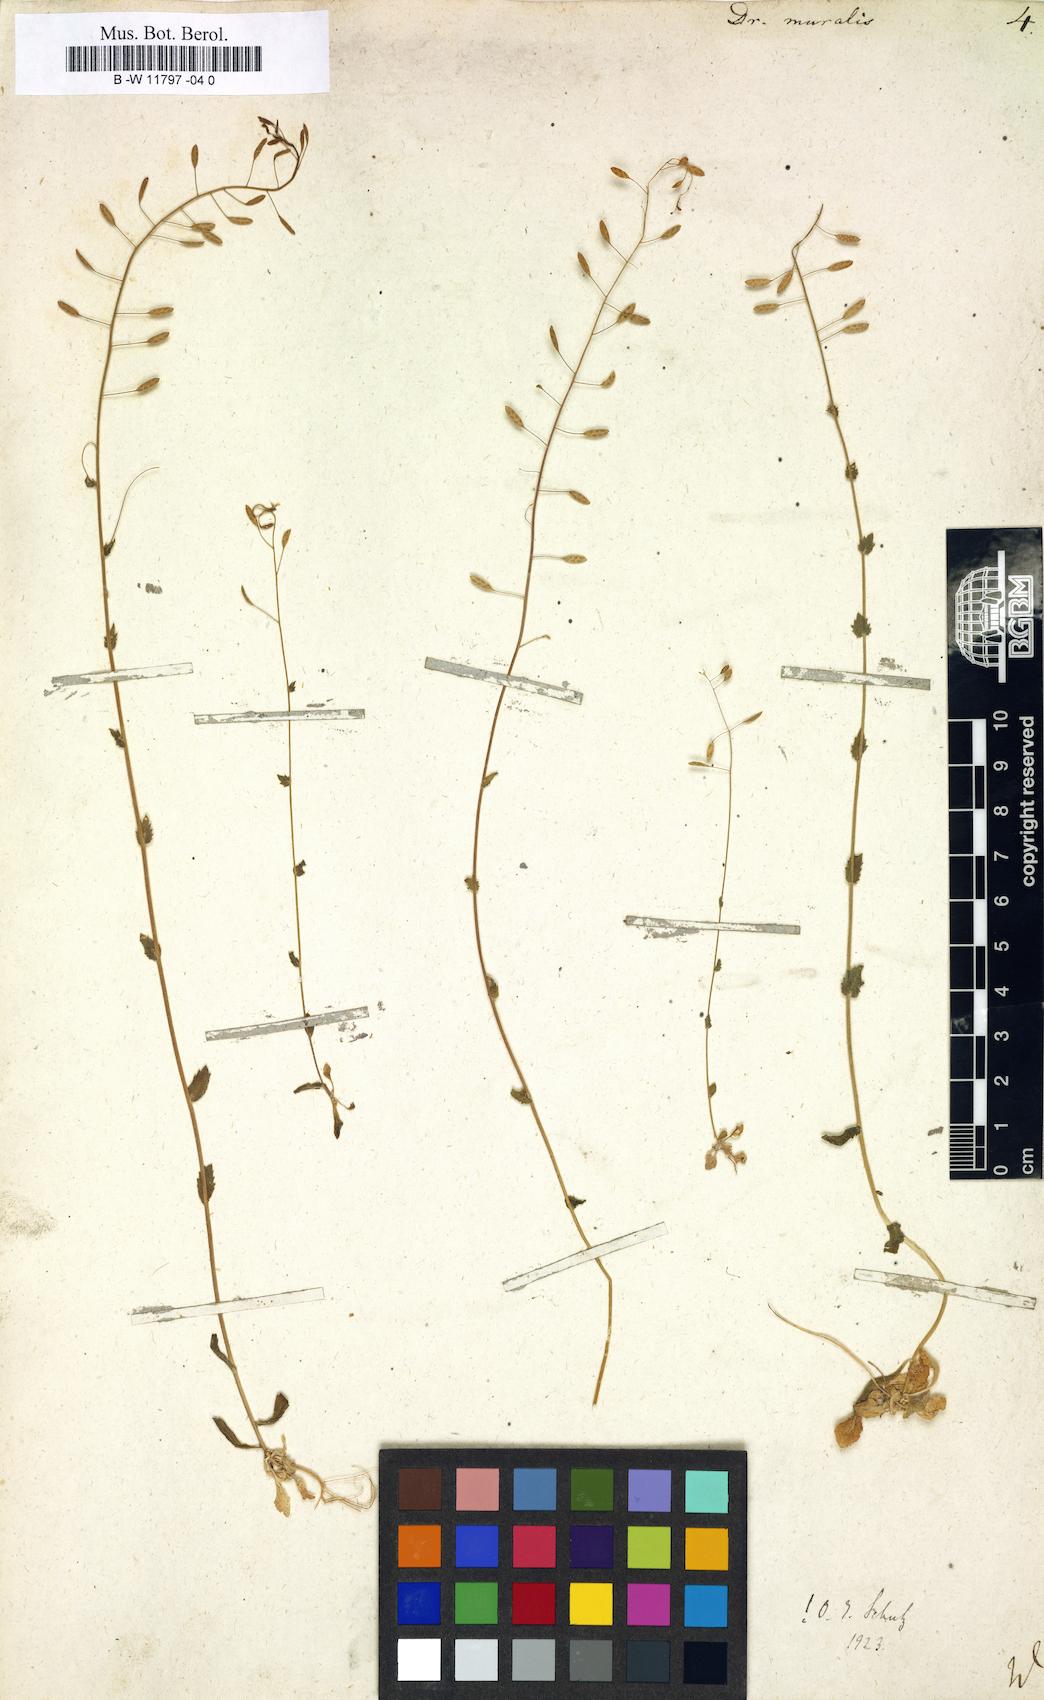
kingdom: Plantae
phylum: Tracheophyta
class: Magnoliopsida
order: Brassicales
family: Brassicaceae
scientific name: Brassicaceae
